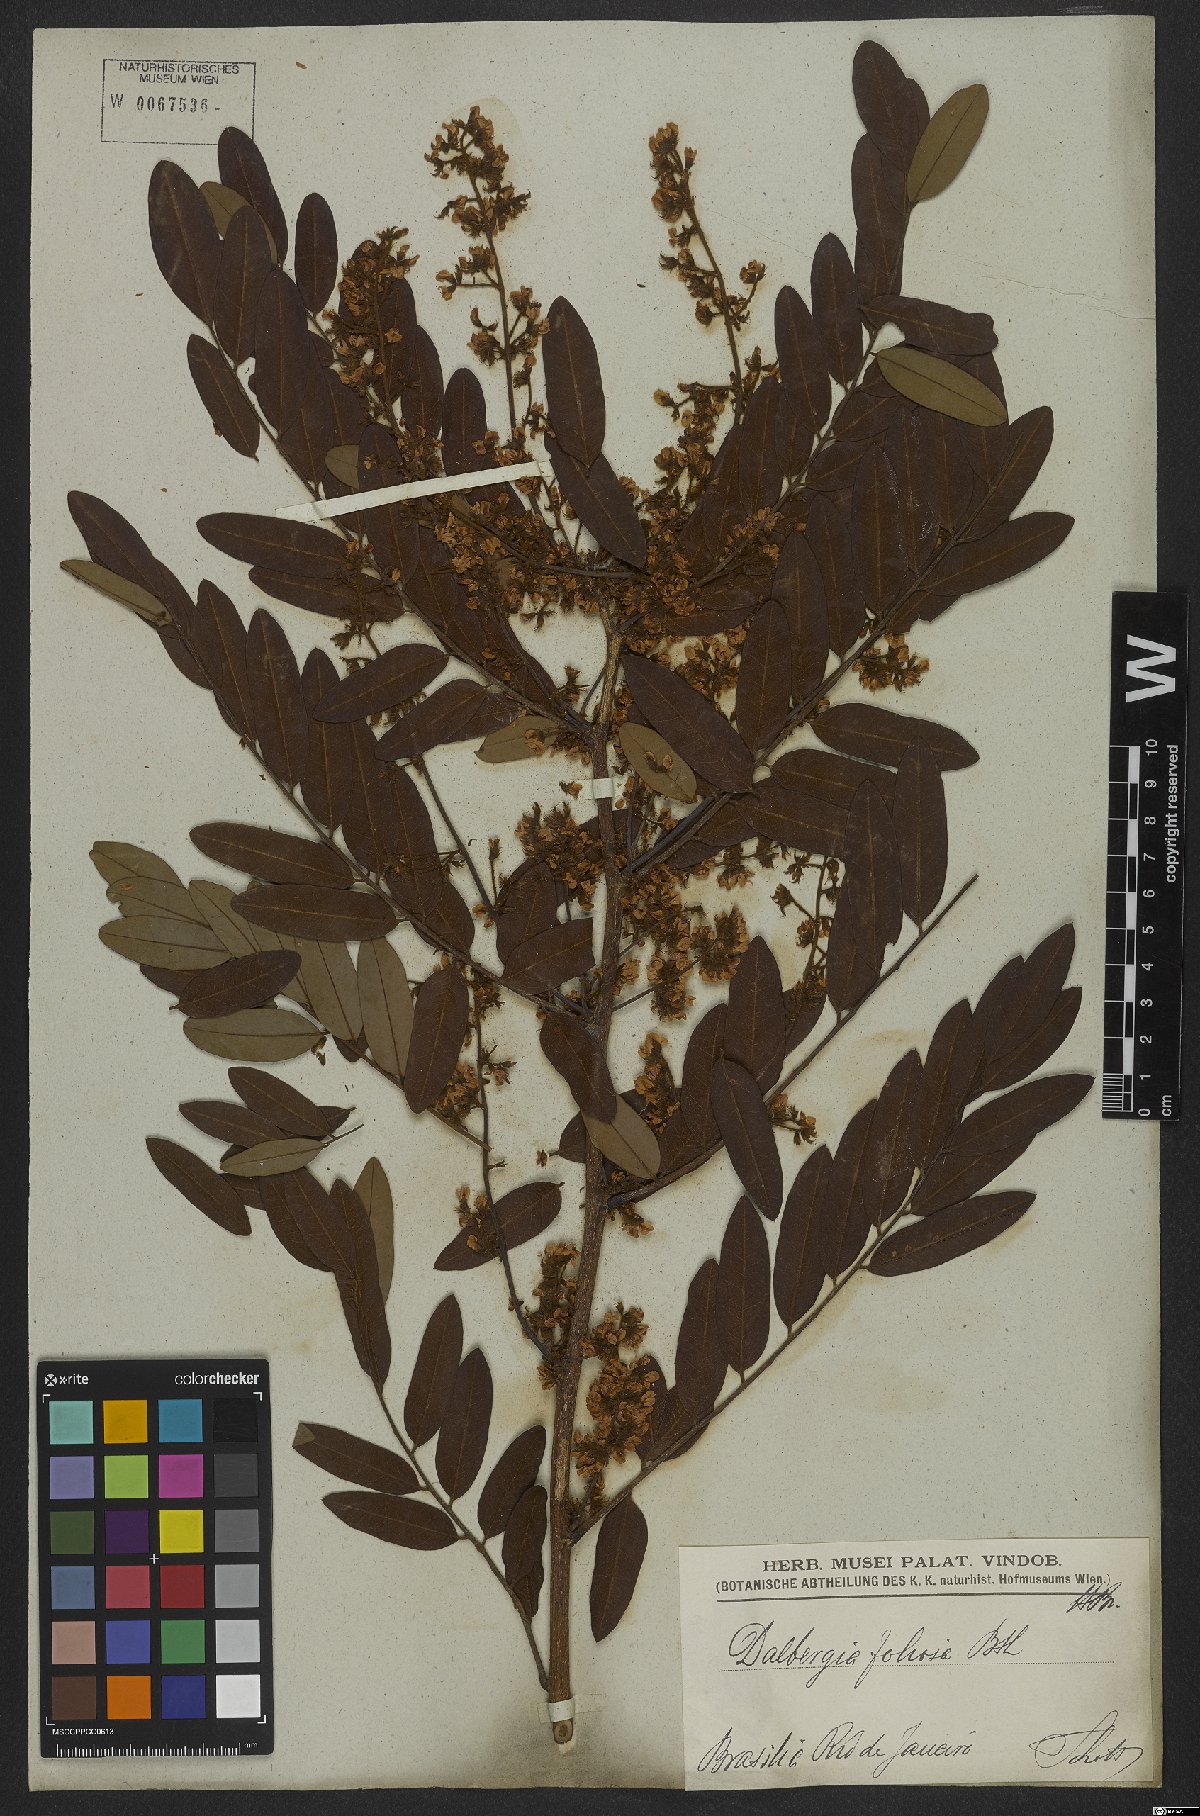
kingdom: Plantae
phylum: Tracheophyta
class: Magnoliopsida
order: Fabales
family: Fabaceae
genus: Dalbergia
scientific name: Dalbergia atropurpurea
